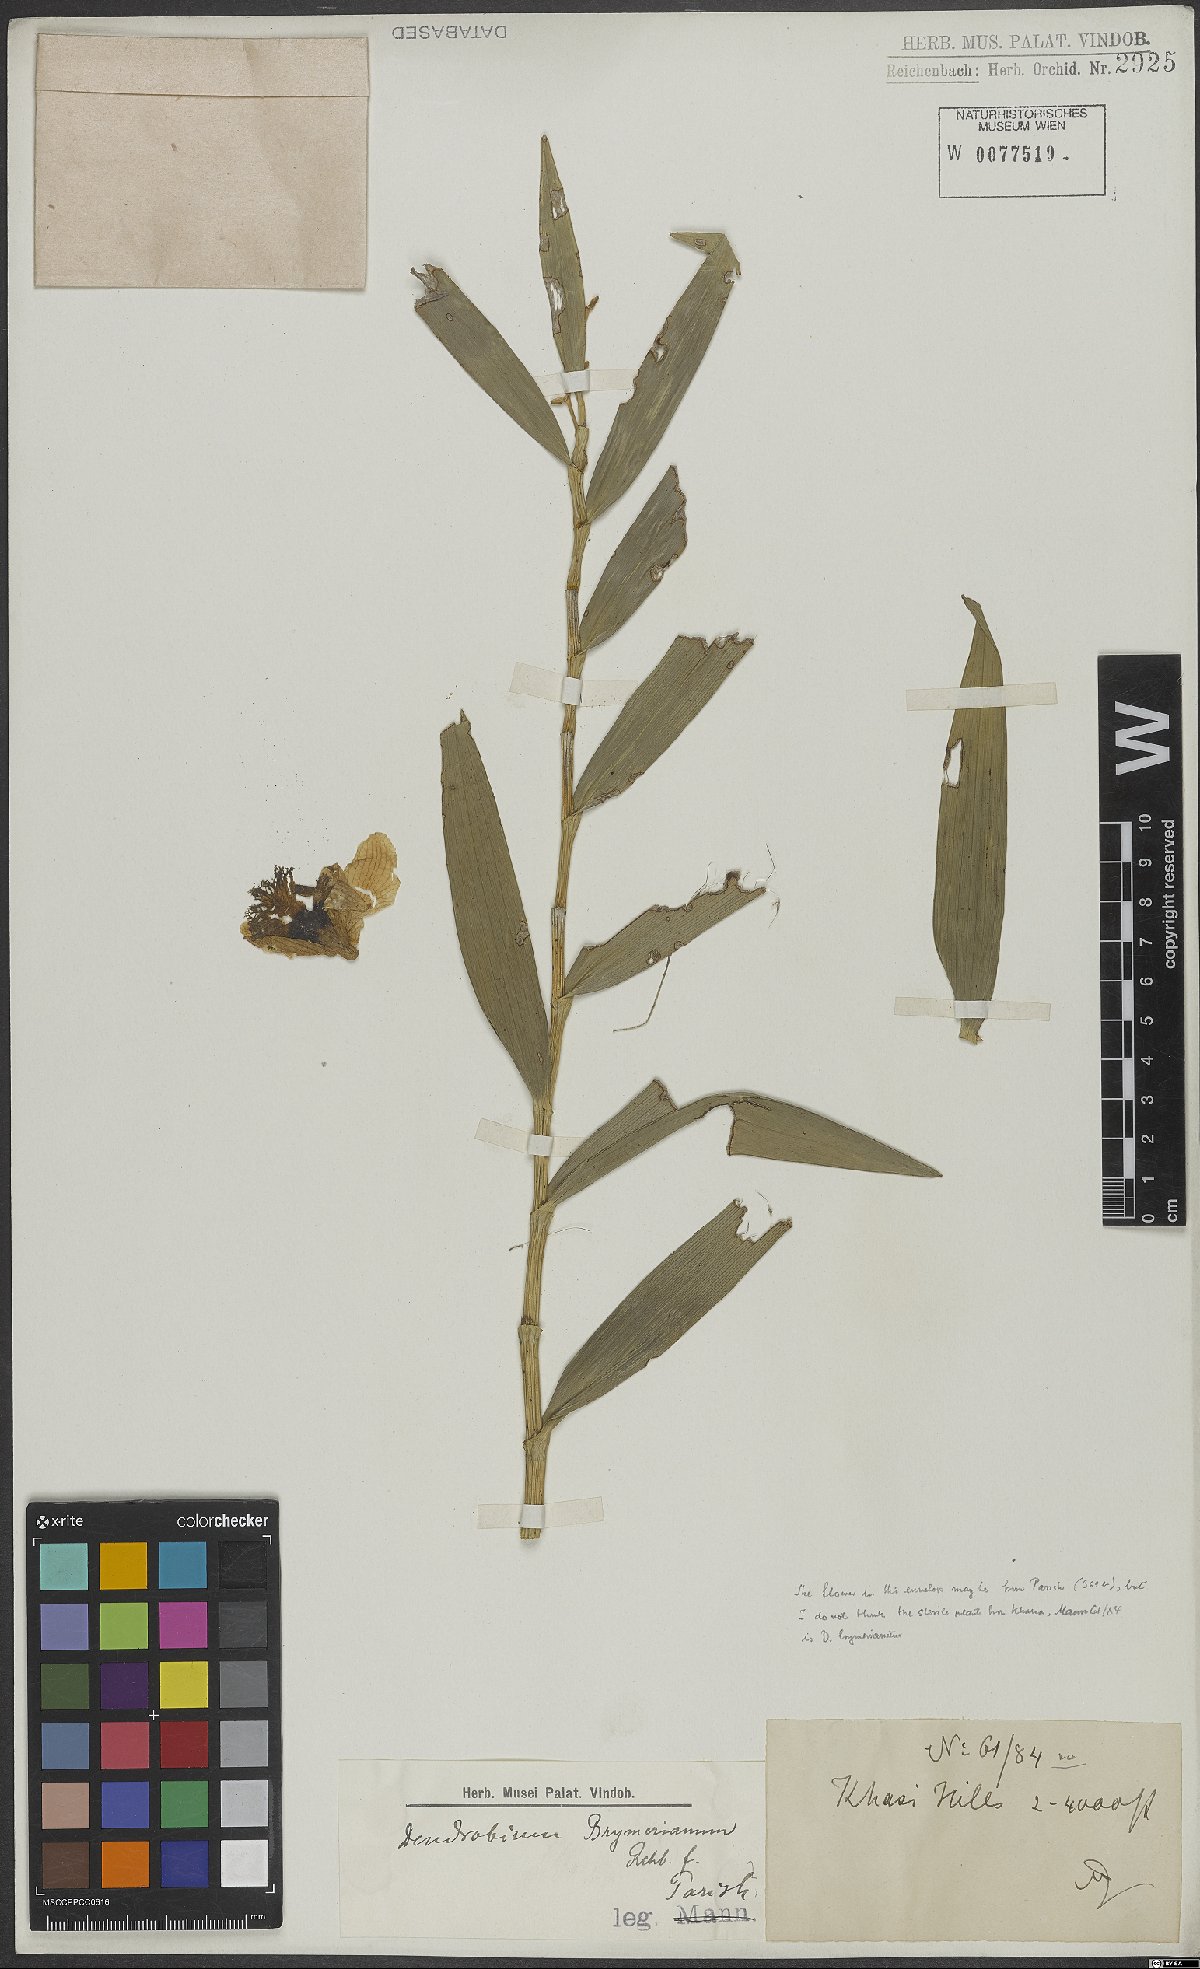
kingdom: Plantae
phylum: Tracheophyta
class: Liliopsida
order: Asparagales
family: Orchidaceae
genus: Dendrobium
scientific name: Dendrobium brymerianum
